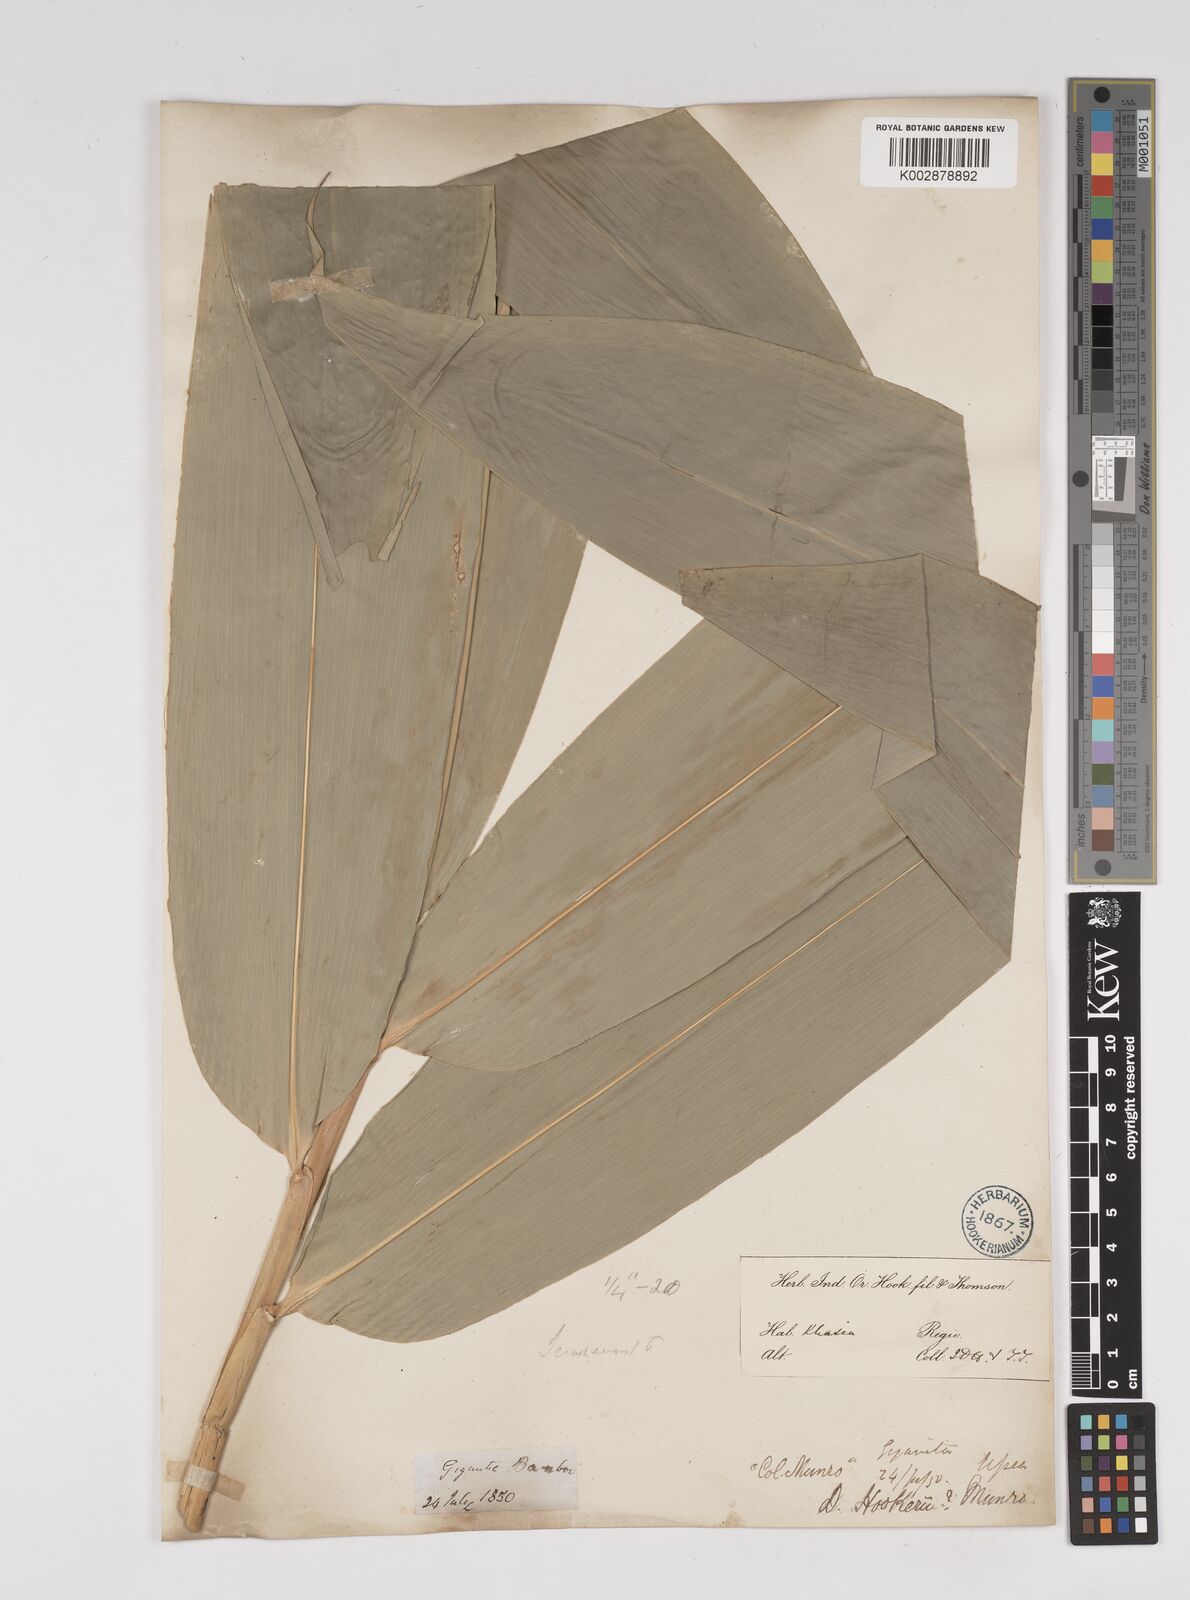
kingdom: Plantae
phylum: Tracheophyta
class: Liliopsida
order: Poales
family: Poaceae
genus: Dendrocalamus
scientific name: Dendrocalamus hookeri
